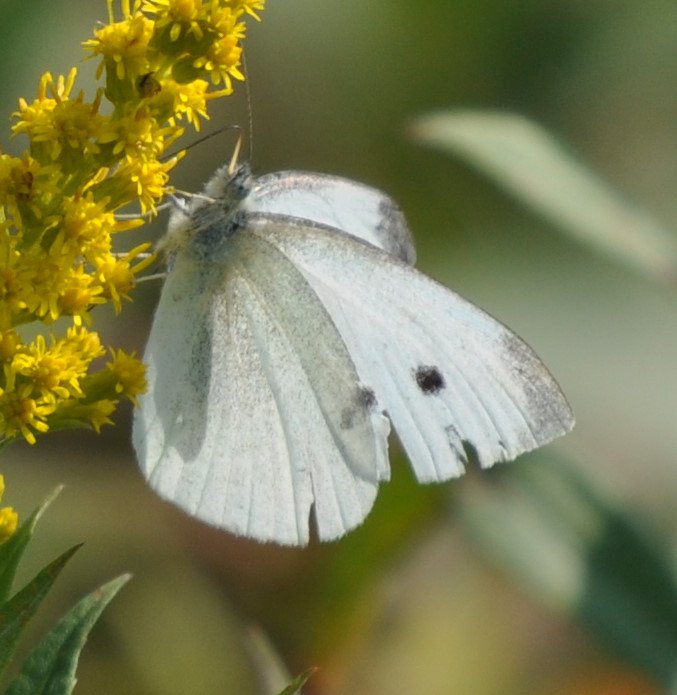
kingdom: Animalia
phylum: Arthropoda
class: Insecta
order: Lepidoptera
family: Pieridae
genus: Pieris
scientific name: Pieris rapae
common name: Cabbage White
